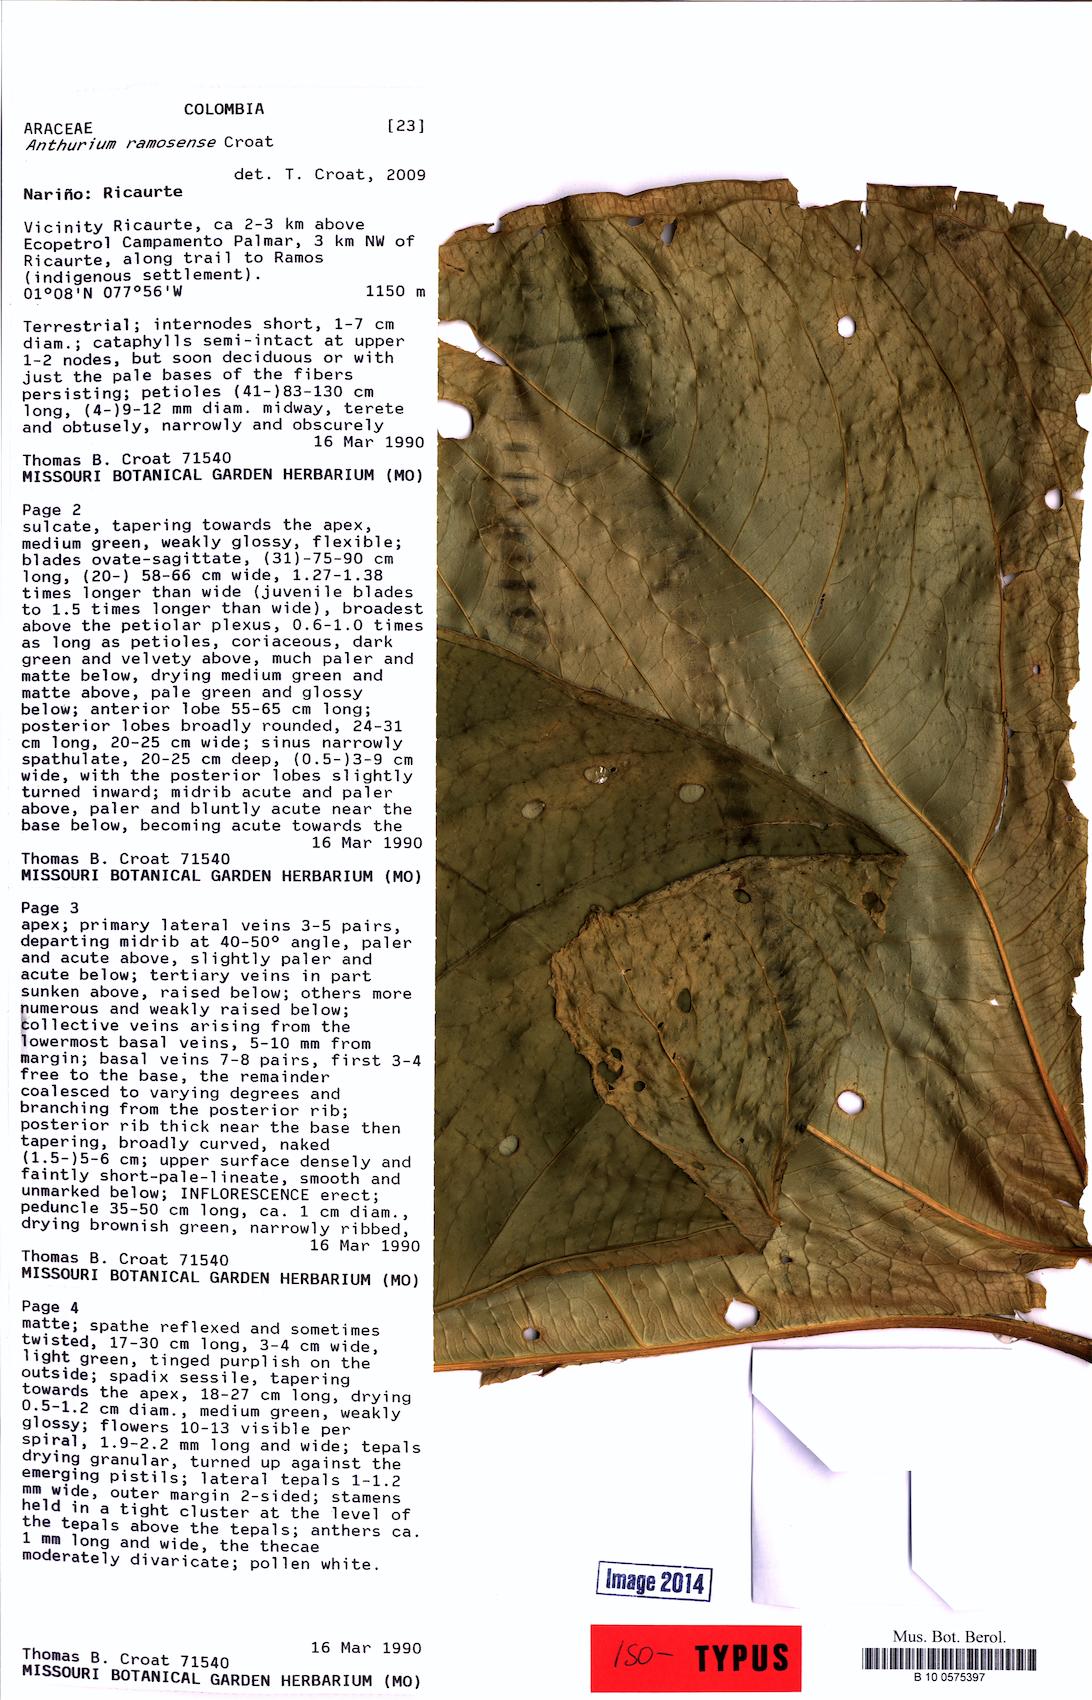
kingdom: Plantae
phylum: Tracheophyta
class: Liliopsida
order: Alismatales
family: Araceae
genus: Anthurium
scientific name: Anthurium ramosense
